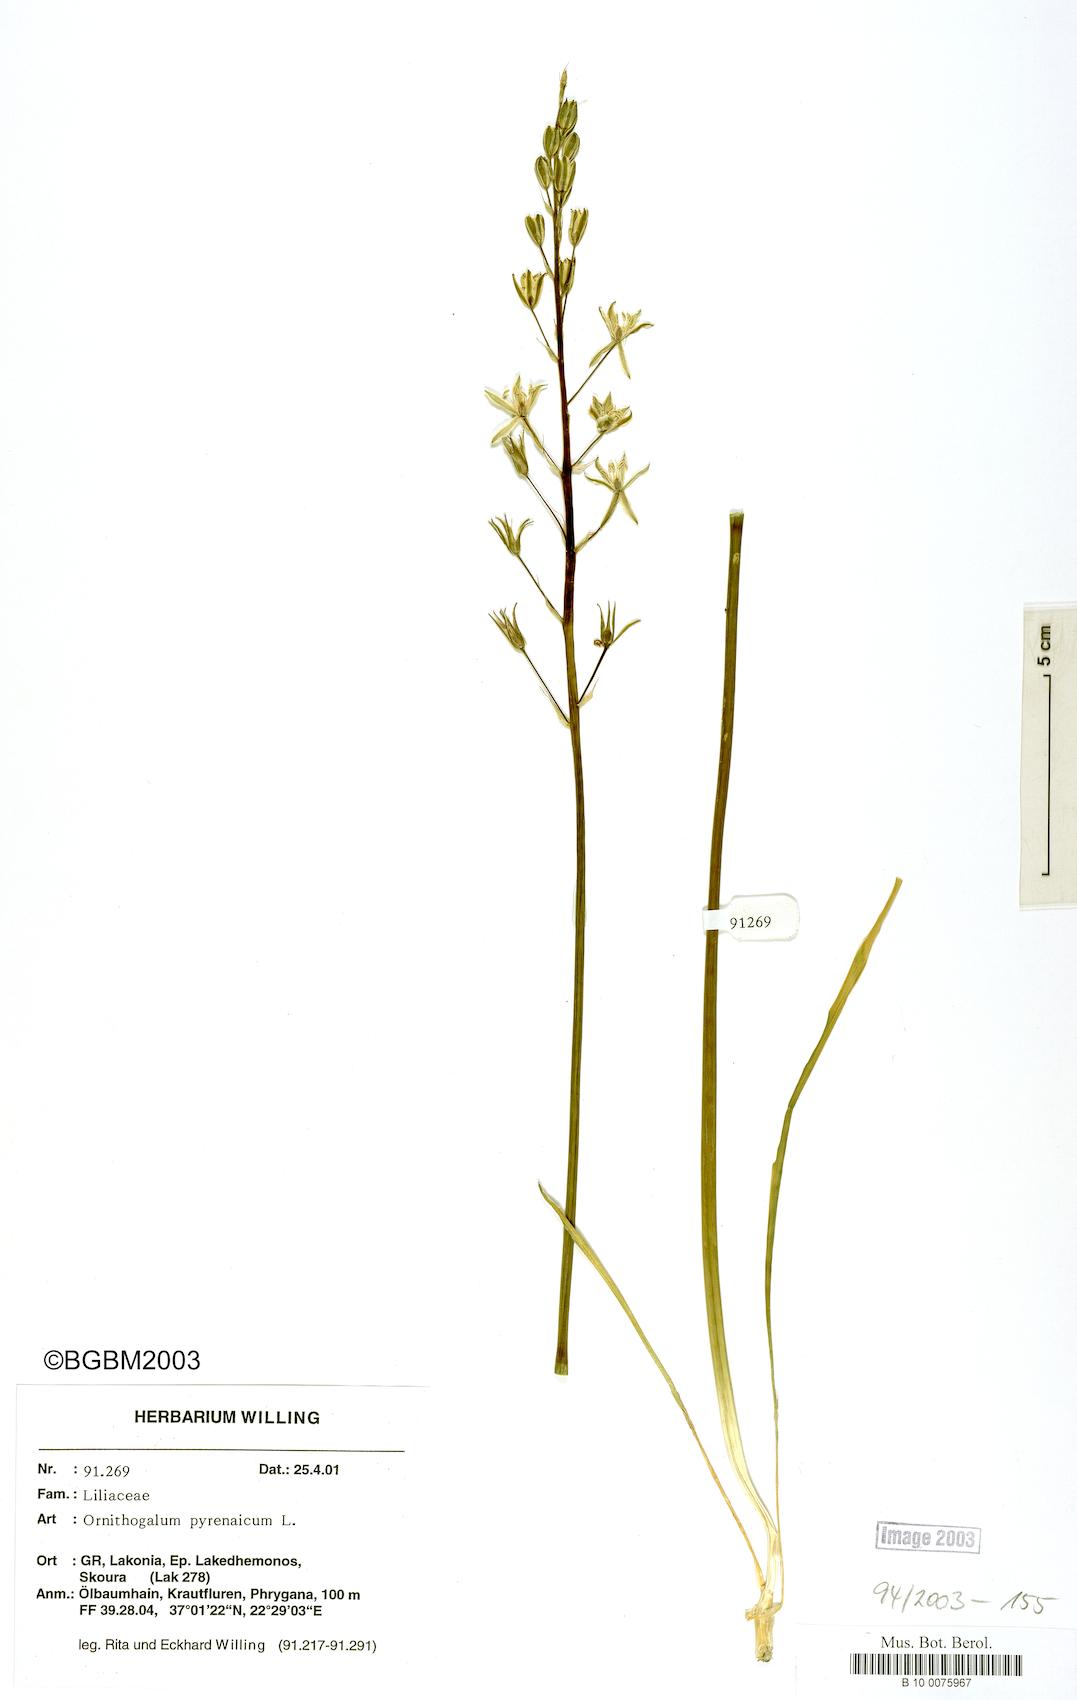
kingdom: Plantae
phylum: Tracheophyta
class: Liliopsida
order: Asparagales
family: Asparagaceae
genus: Ornithogalum
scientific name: Ornithogalum pyrenaicum
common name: Spiked star-of-bethlehem
